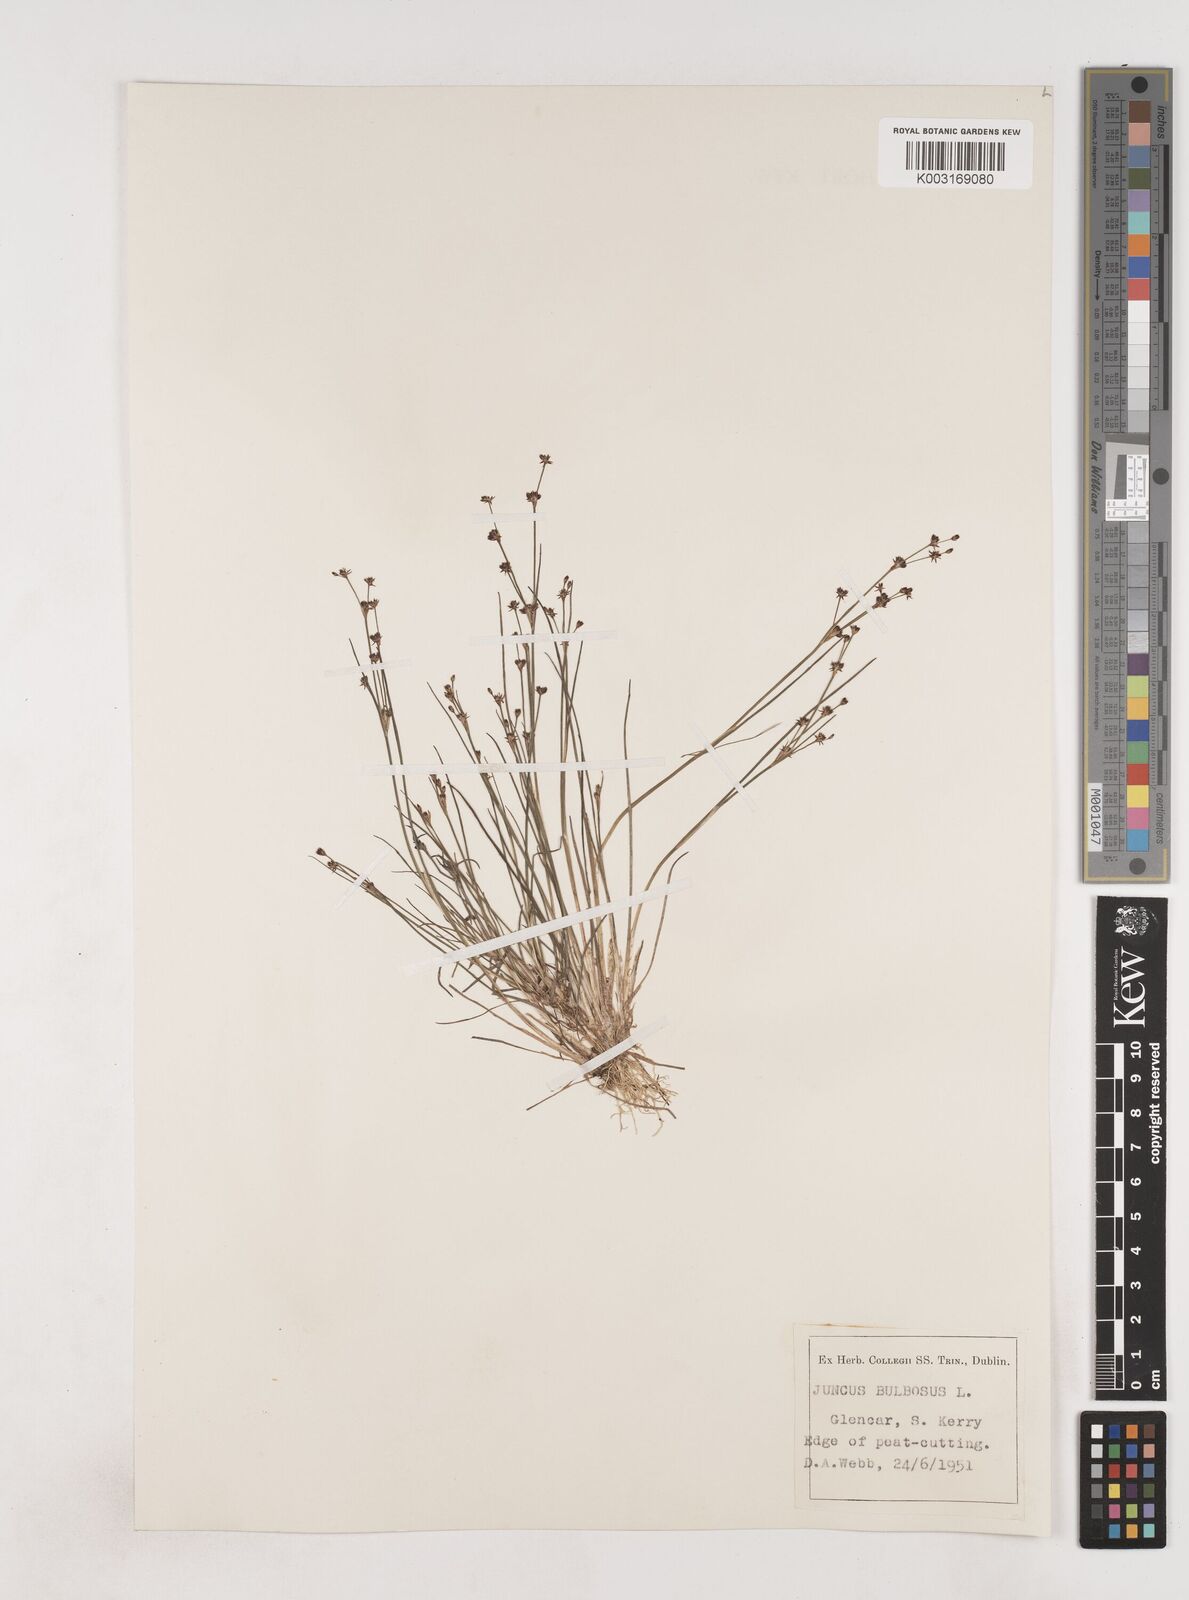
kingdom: Plantae
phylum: Tracheophyta
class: Liliopsida
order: Poales
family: Juncaceae
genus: Juncus
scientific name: Juncus bulbosus
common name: Bulbous rush
